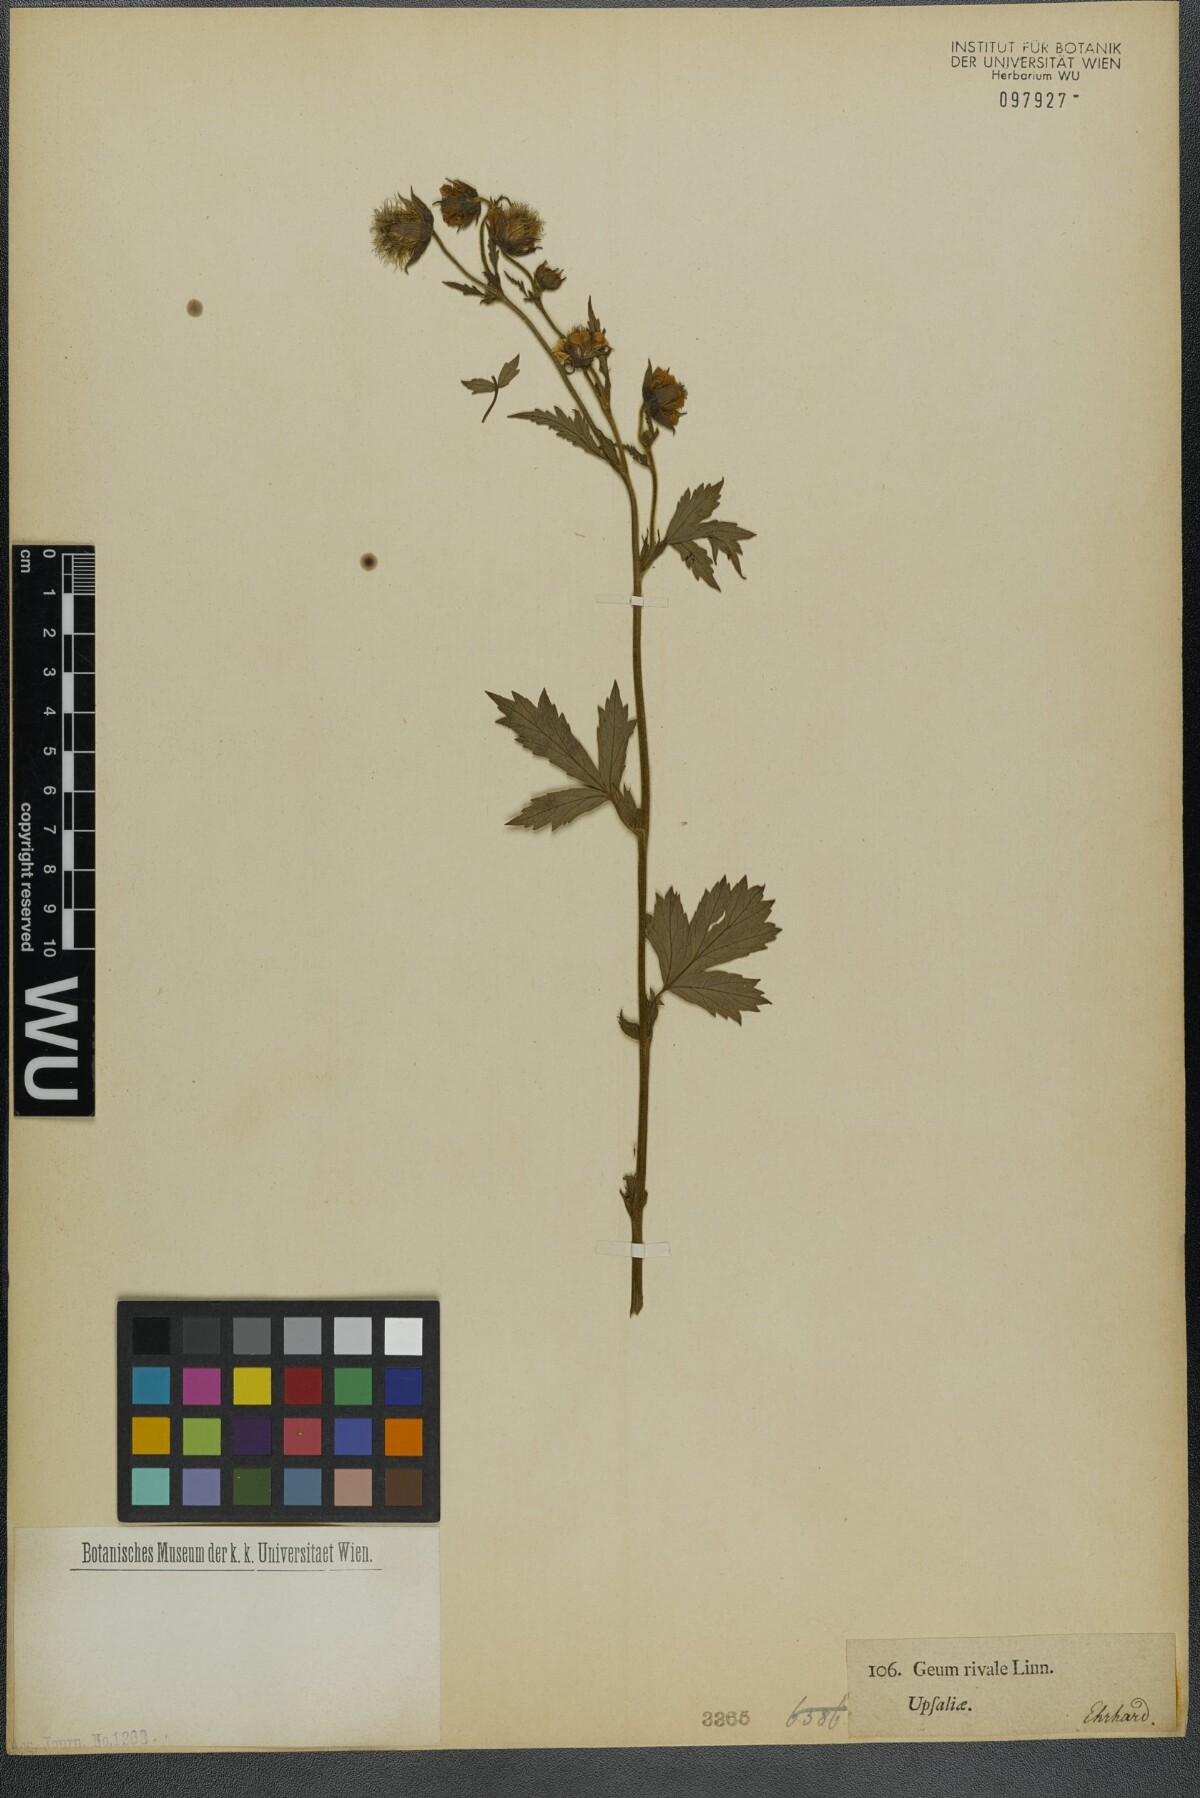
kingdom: Plantae
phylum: Tracheophyta
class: Magnoliopsida
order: Rosales
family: Rosaceae
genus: Geum
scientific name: Geum rivale
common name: Water avens
